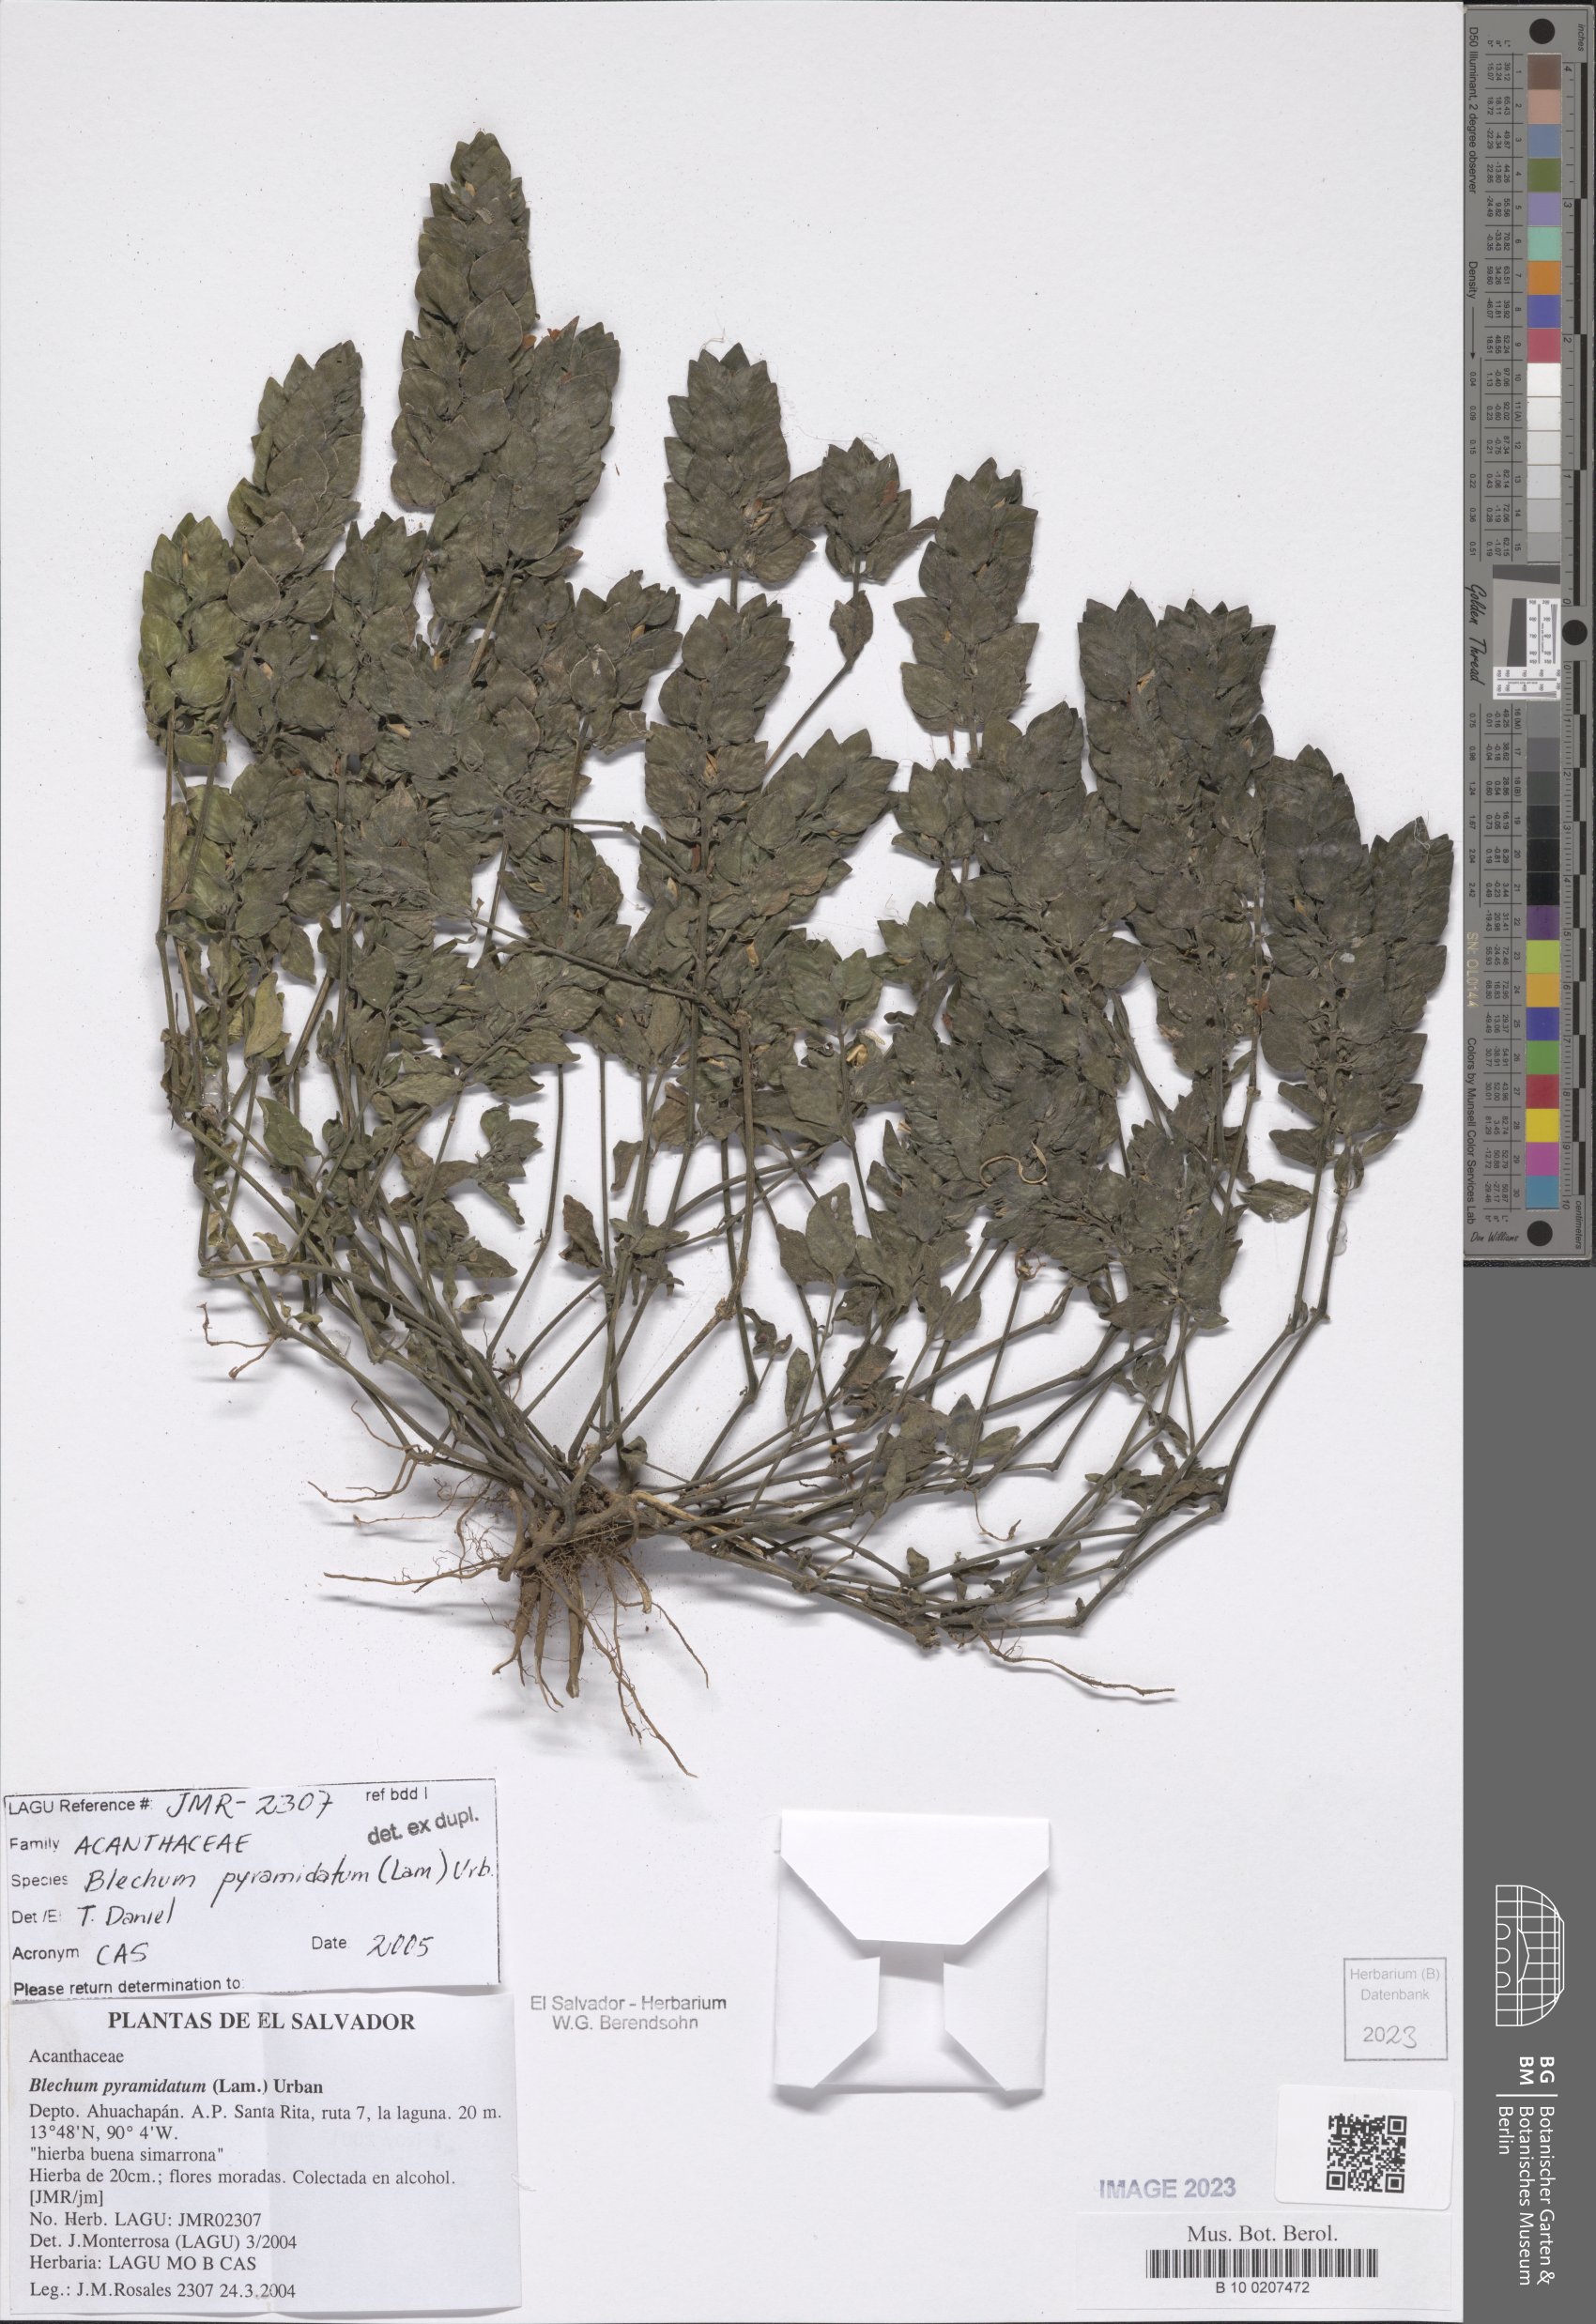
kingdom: Plantae
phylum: Tracheophyta
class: Magnoliopsida
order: Lamiales
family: Acanthaceae
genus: Ruellia
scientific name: Ruellia blechum
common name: Browne's blechum
